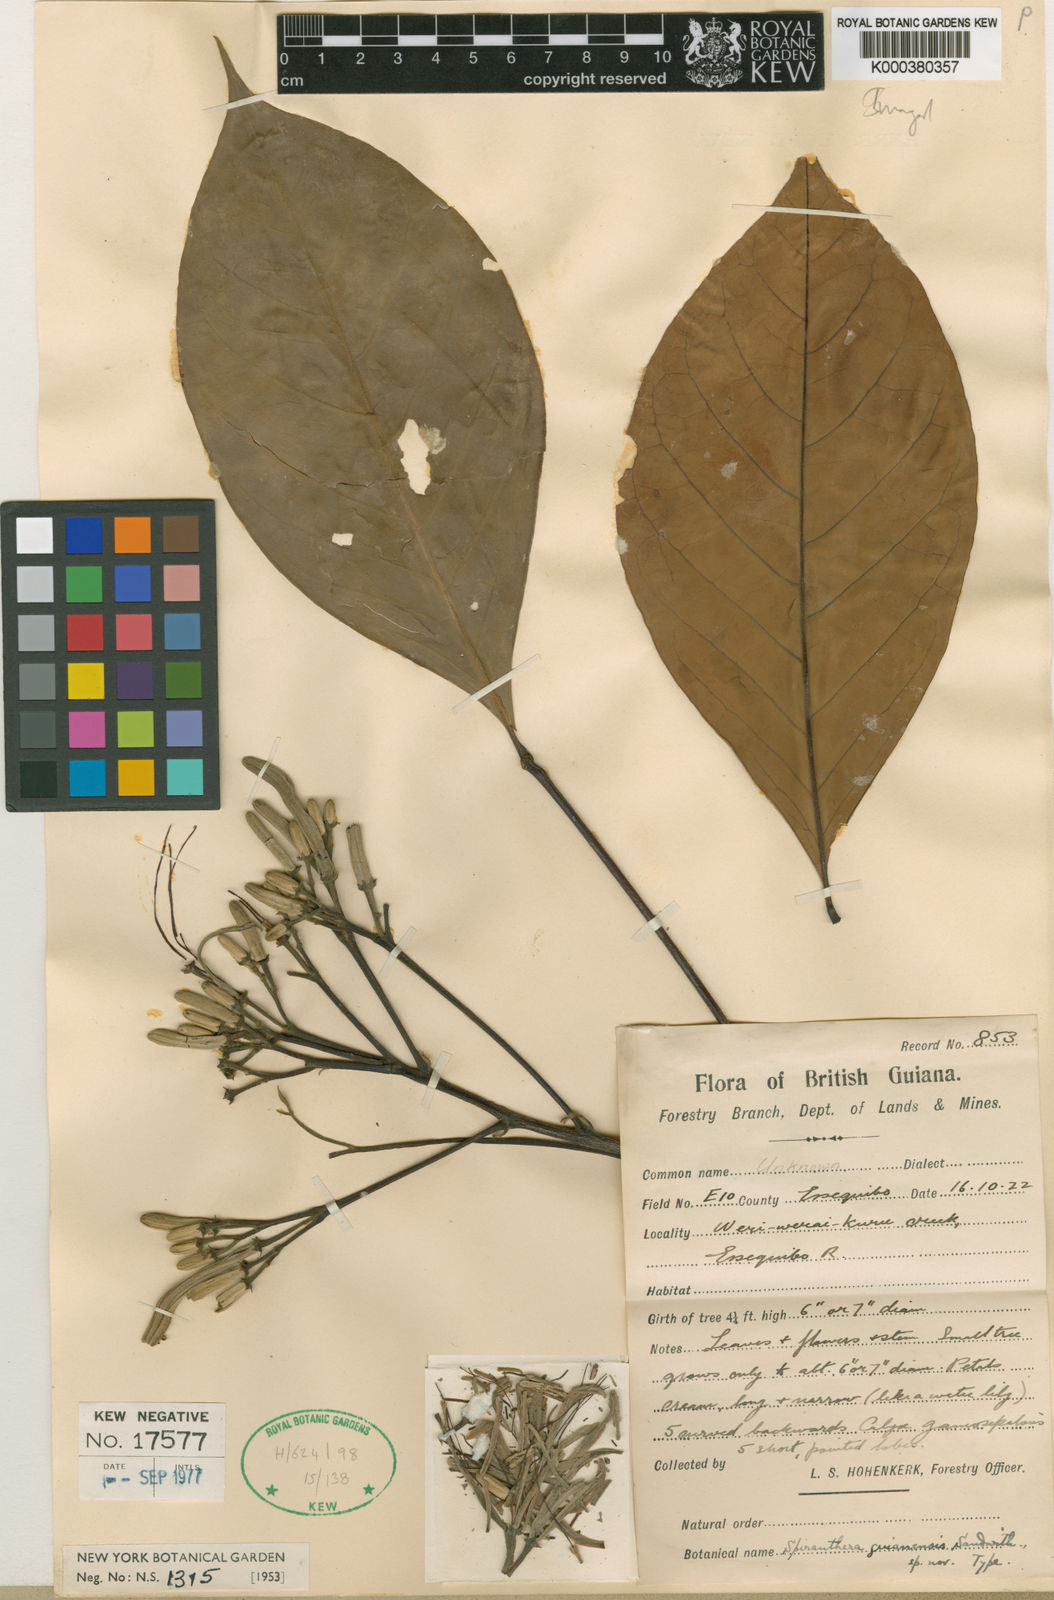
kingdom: Plantae
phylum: Tracheophyta
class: Magnoliopsida
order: Sapindales
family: Rutaceae
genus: Spiranthera
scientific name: Spiranthera guianensis
